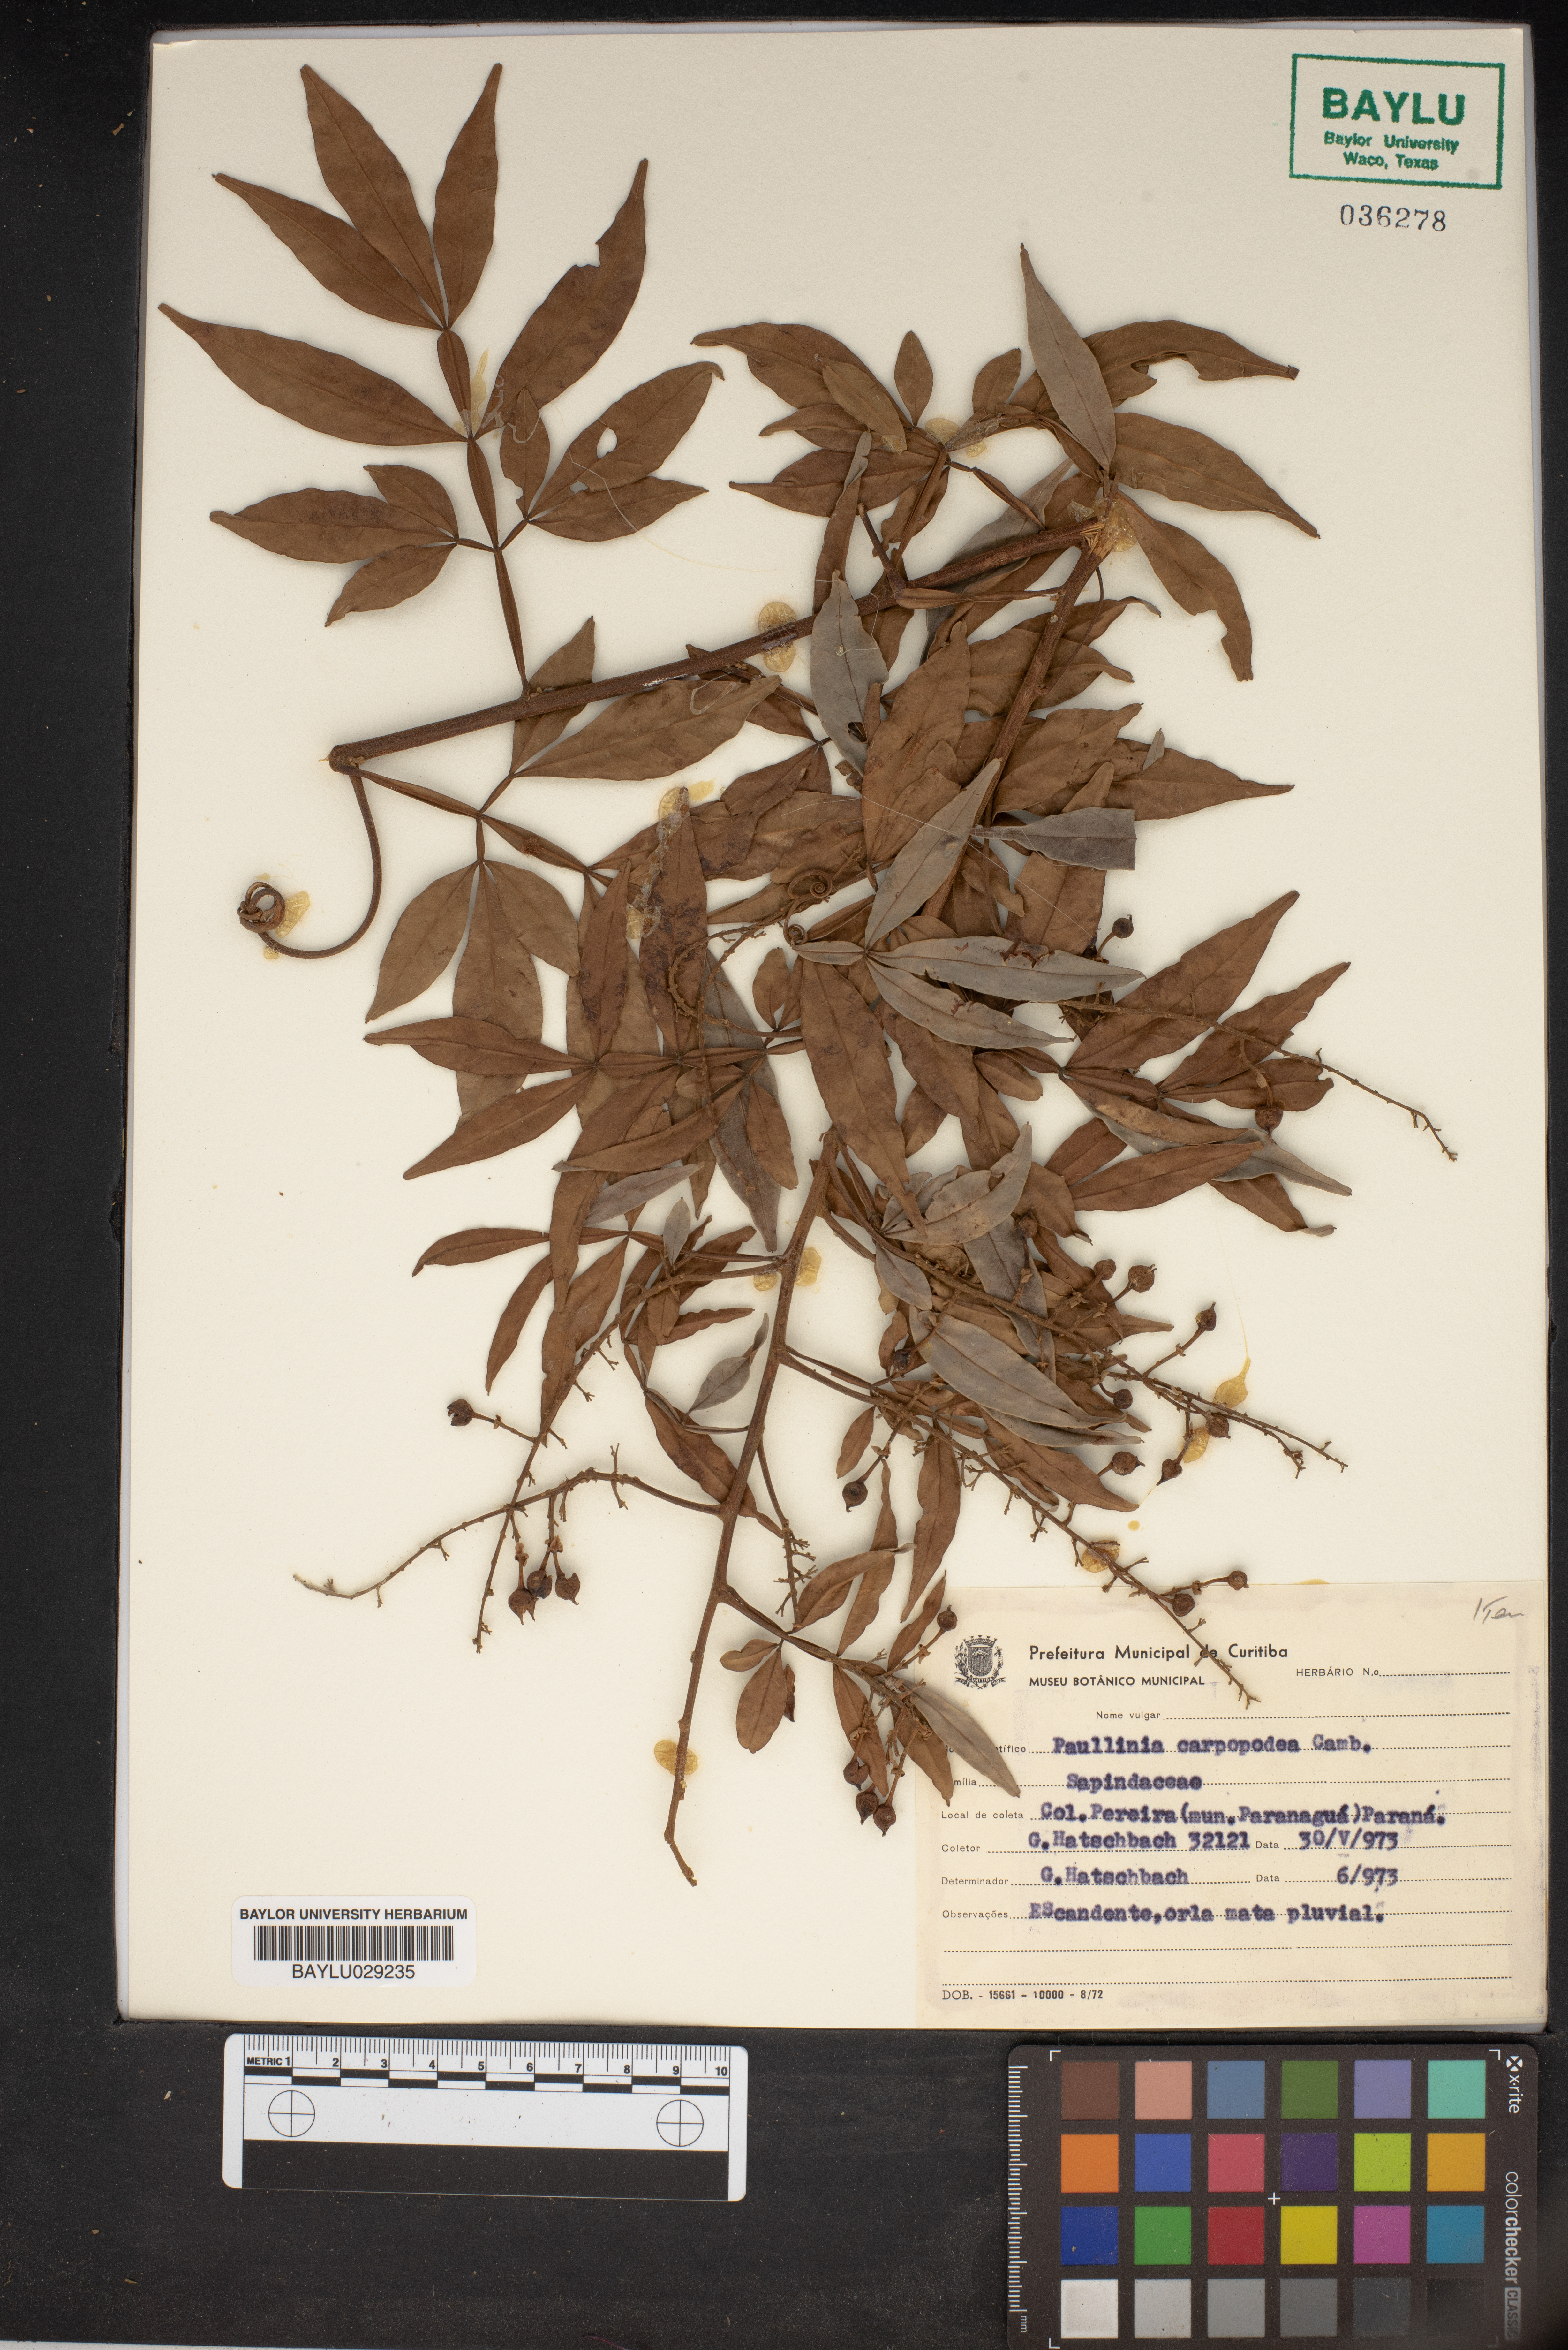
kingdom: Plantae
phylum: Tracheophyta
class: Magnoliopsida
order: Sapindales
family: Sapindaceae
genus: Paullinia
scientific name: Paullinia carpopodea
